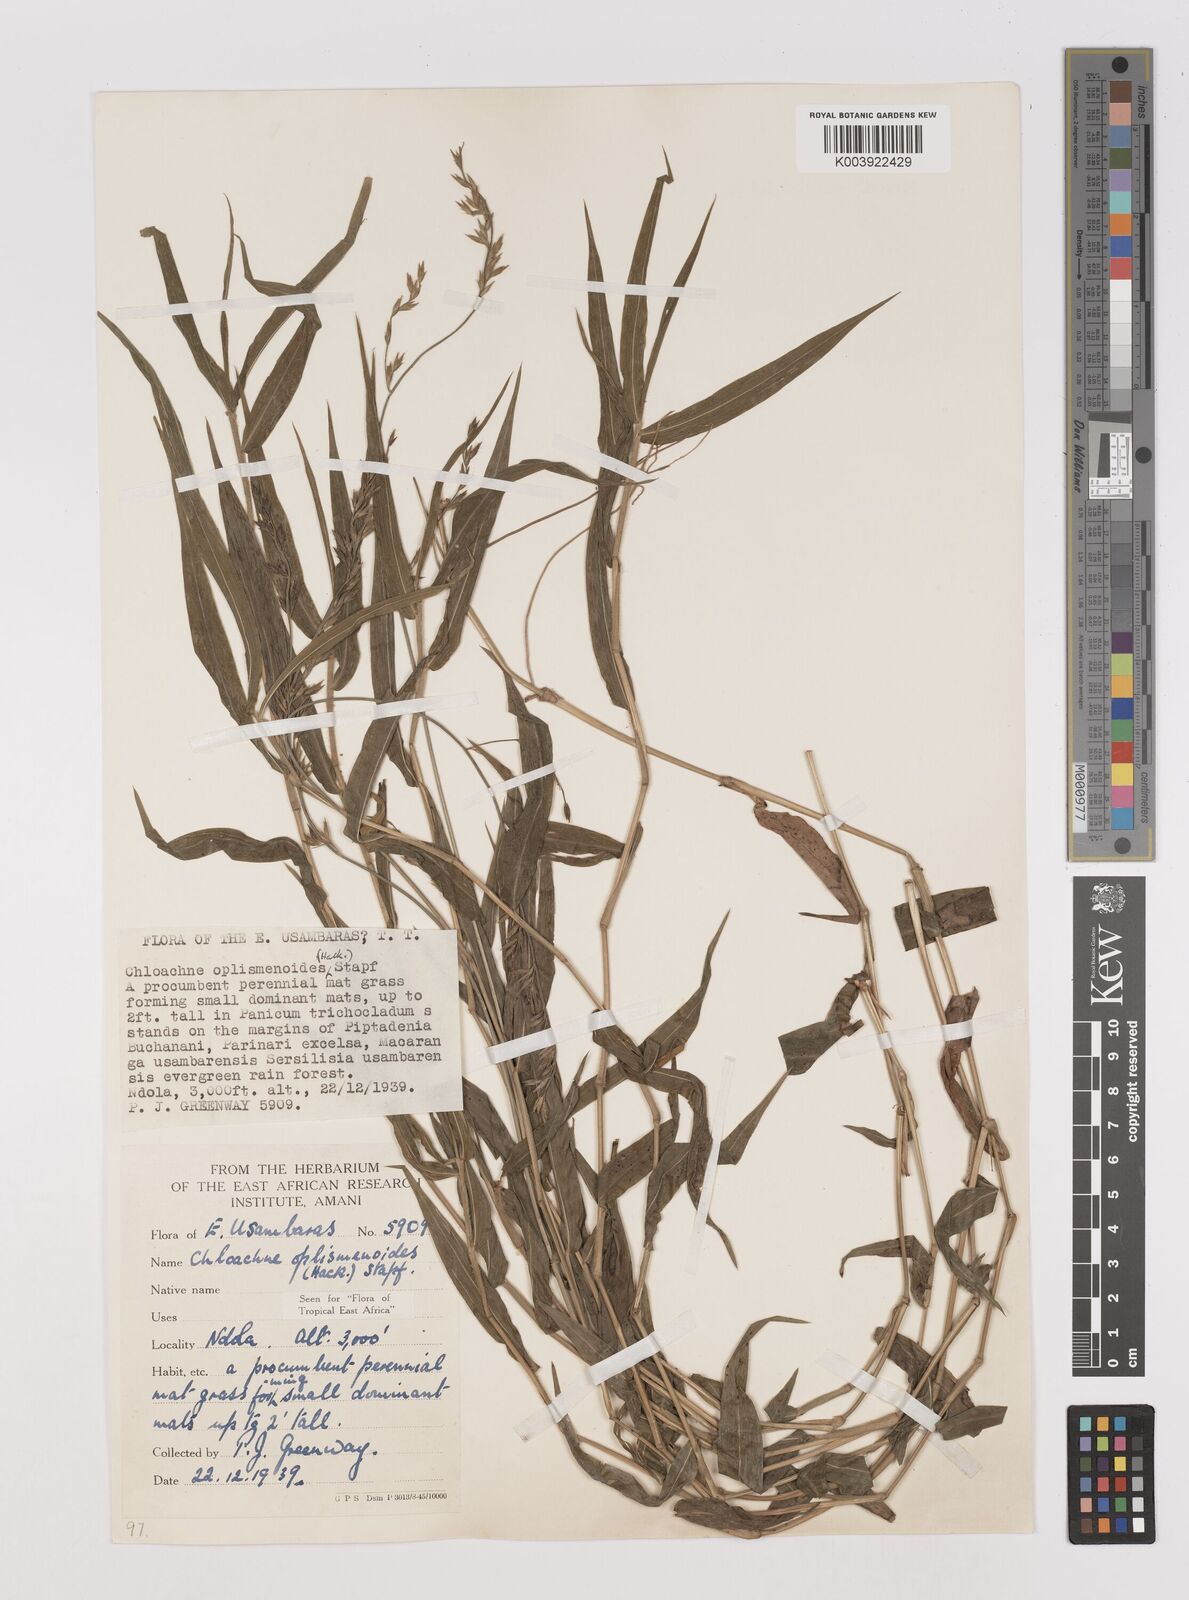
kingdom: Plantae
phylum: Tracheophyta
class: Liliopsida
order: Poales
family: Poaceae
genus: Poecilostachys
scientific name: Poecilostachys oplismenoides
